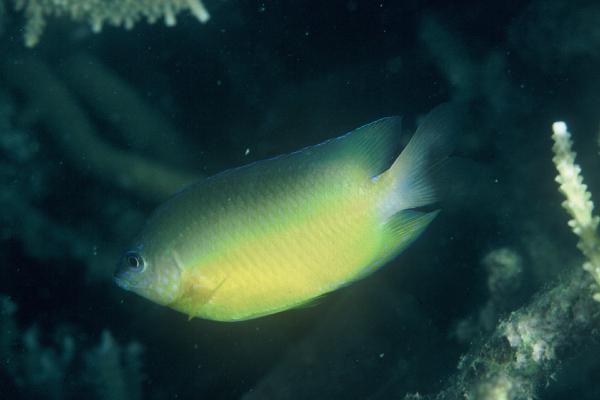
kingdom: Animalia
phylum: Chordata
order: Perciformes
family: Pomacentridae
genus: Pomacentrus
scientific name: Pomacentrus simsiang
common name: Blueback damsel
